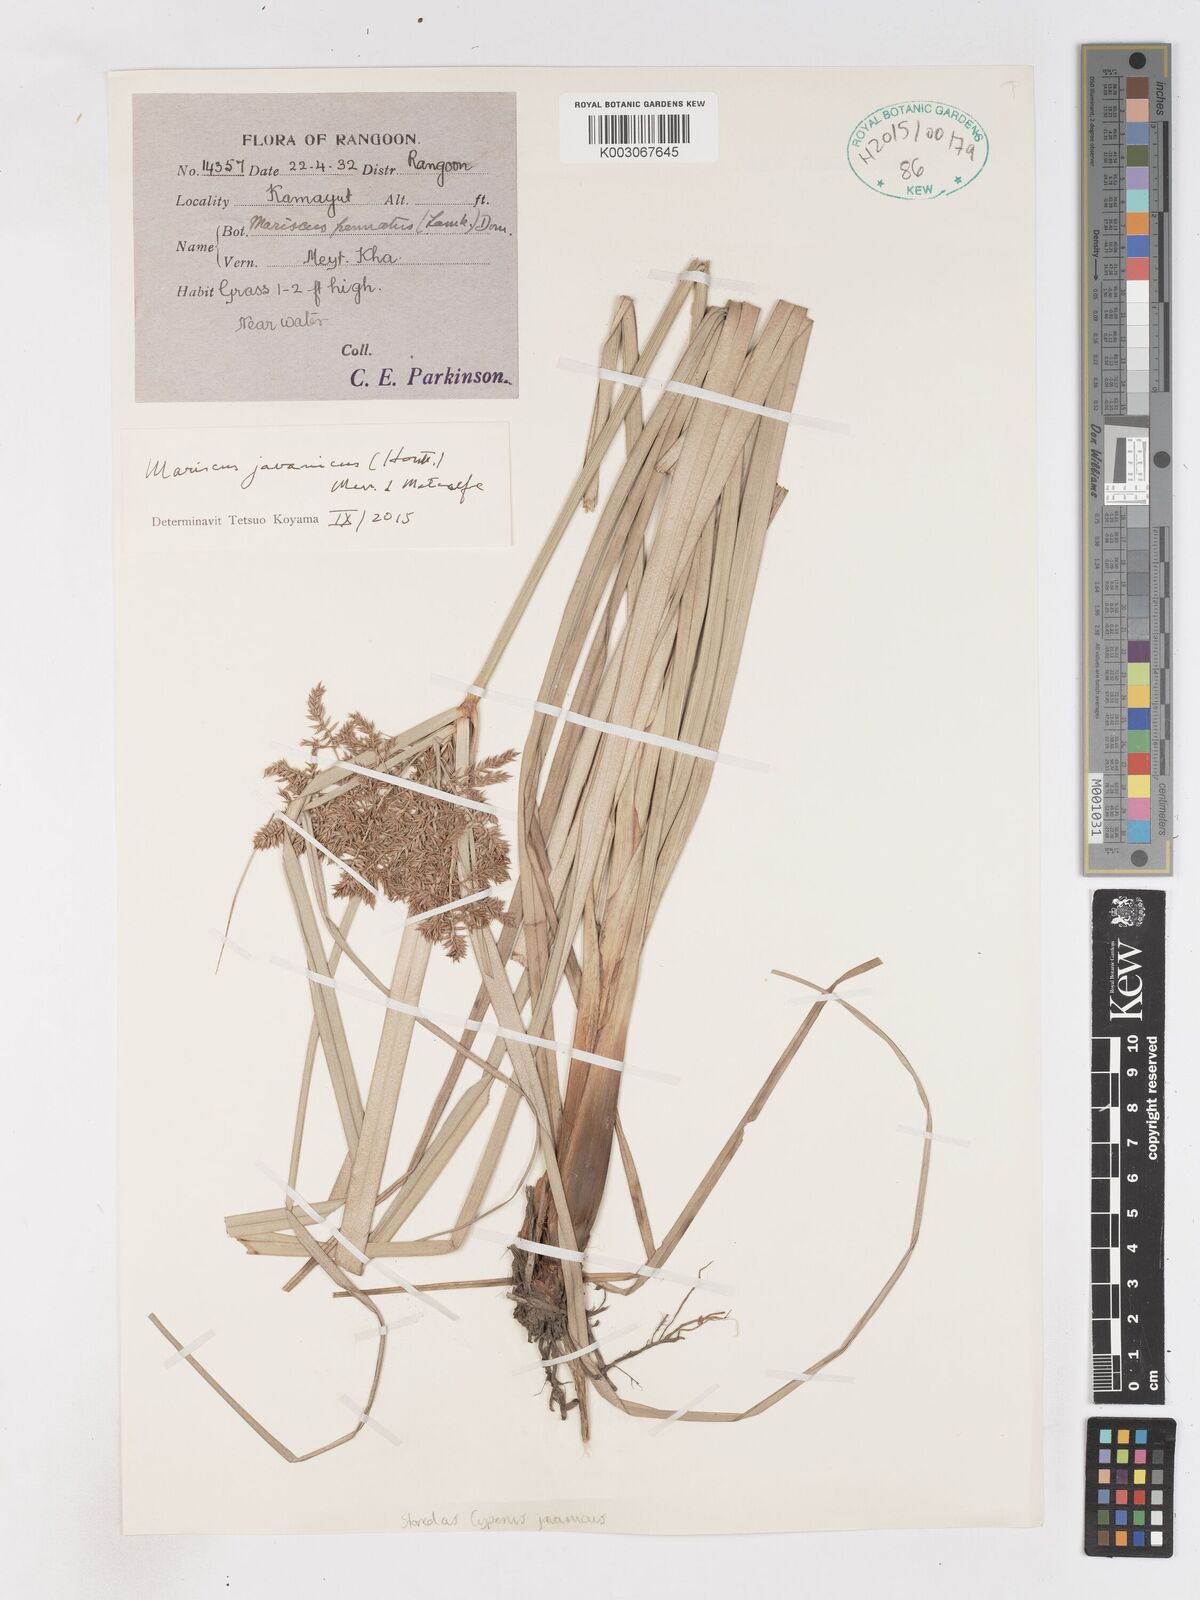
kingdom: Plantae
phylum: Tracheophyta
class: Liliopsida
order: Poales
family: Cyperaceae
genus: Cyperus
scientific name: Cyperus javanicus
